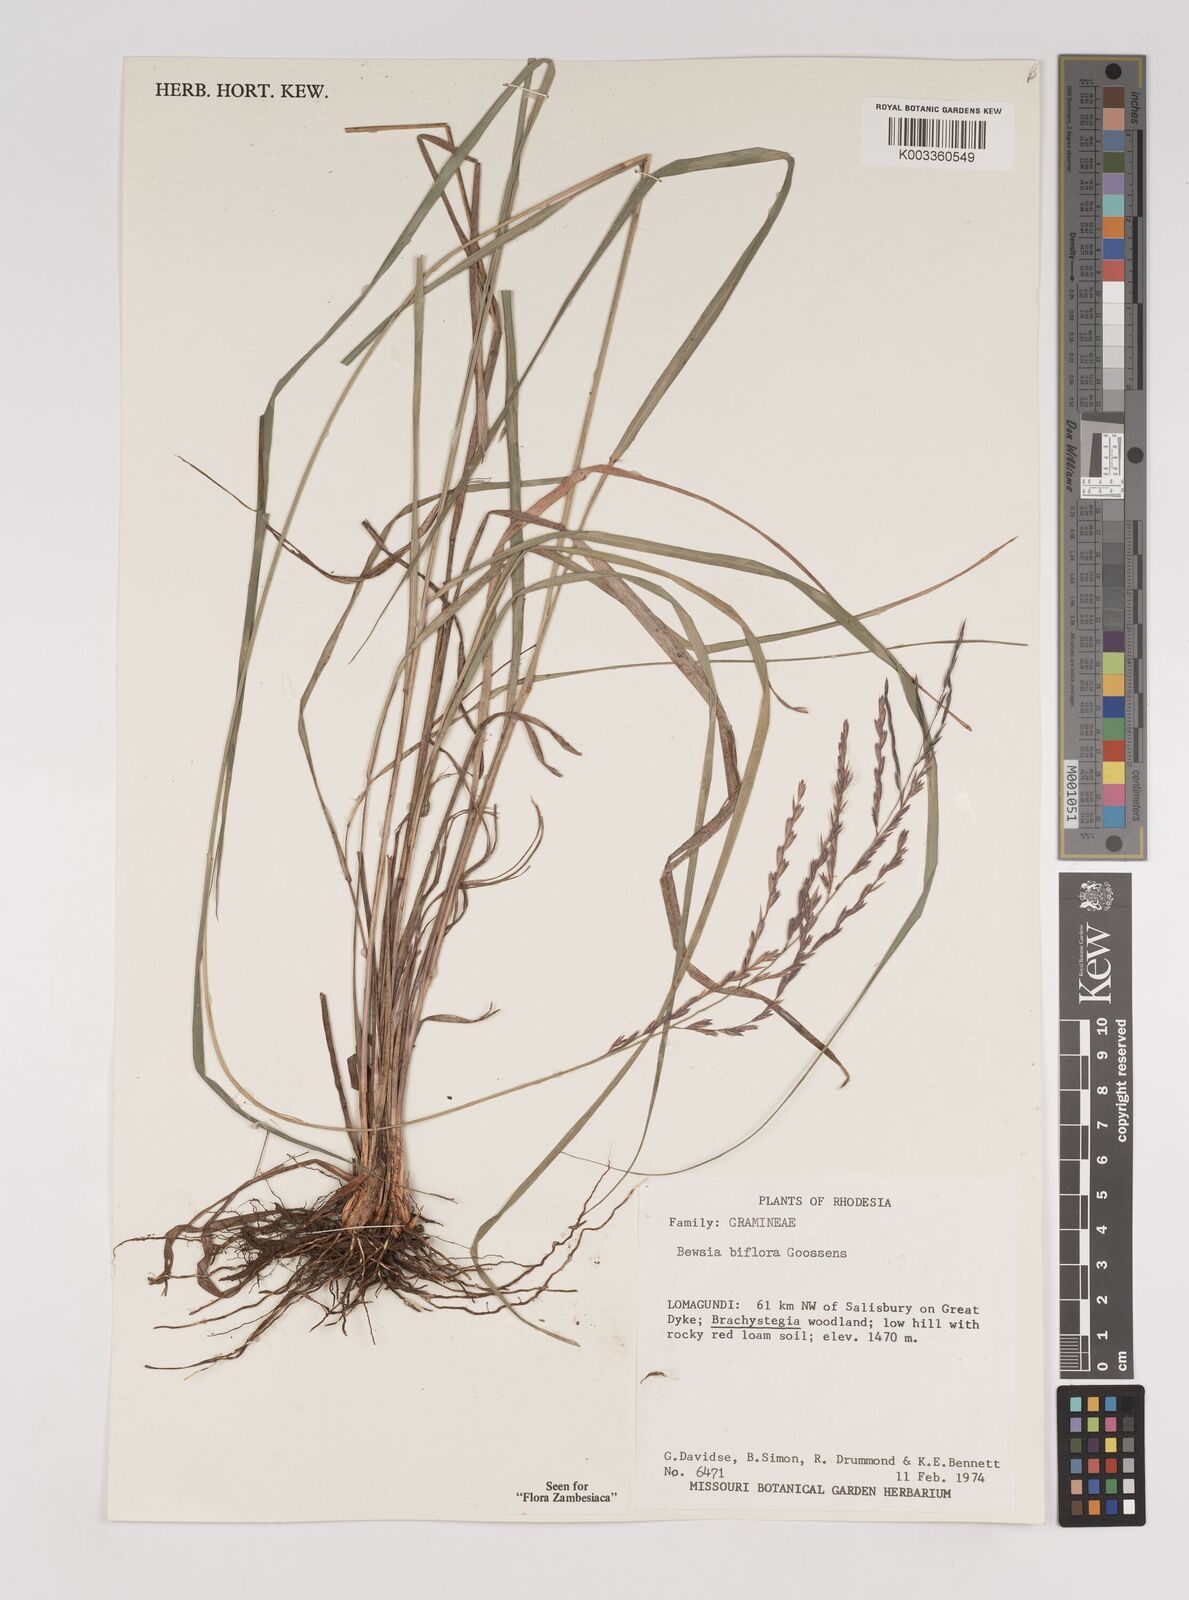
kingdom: Plantae
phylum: Tracheophyta
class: Liliopsida
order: Poales
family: Poaceae
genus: Bewsia
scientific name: Bewsia biflora
